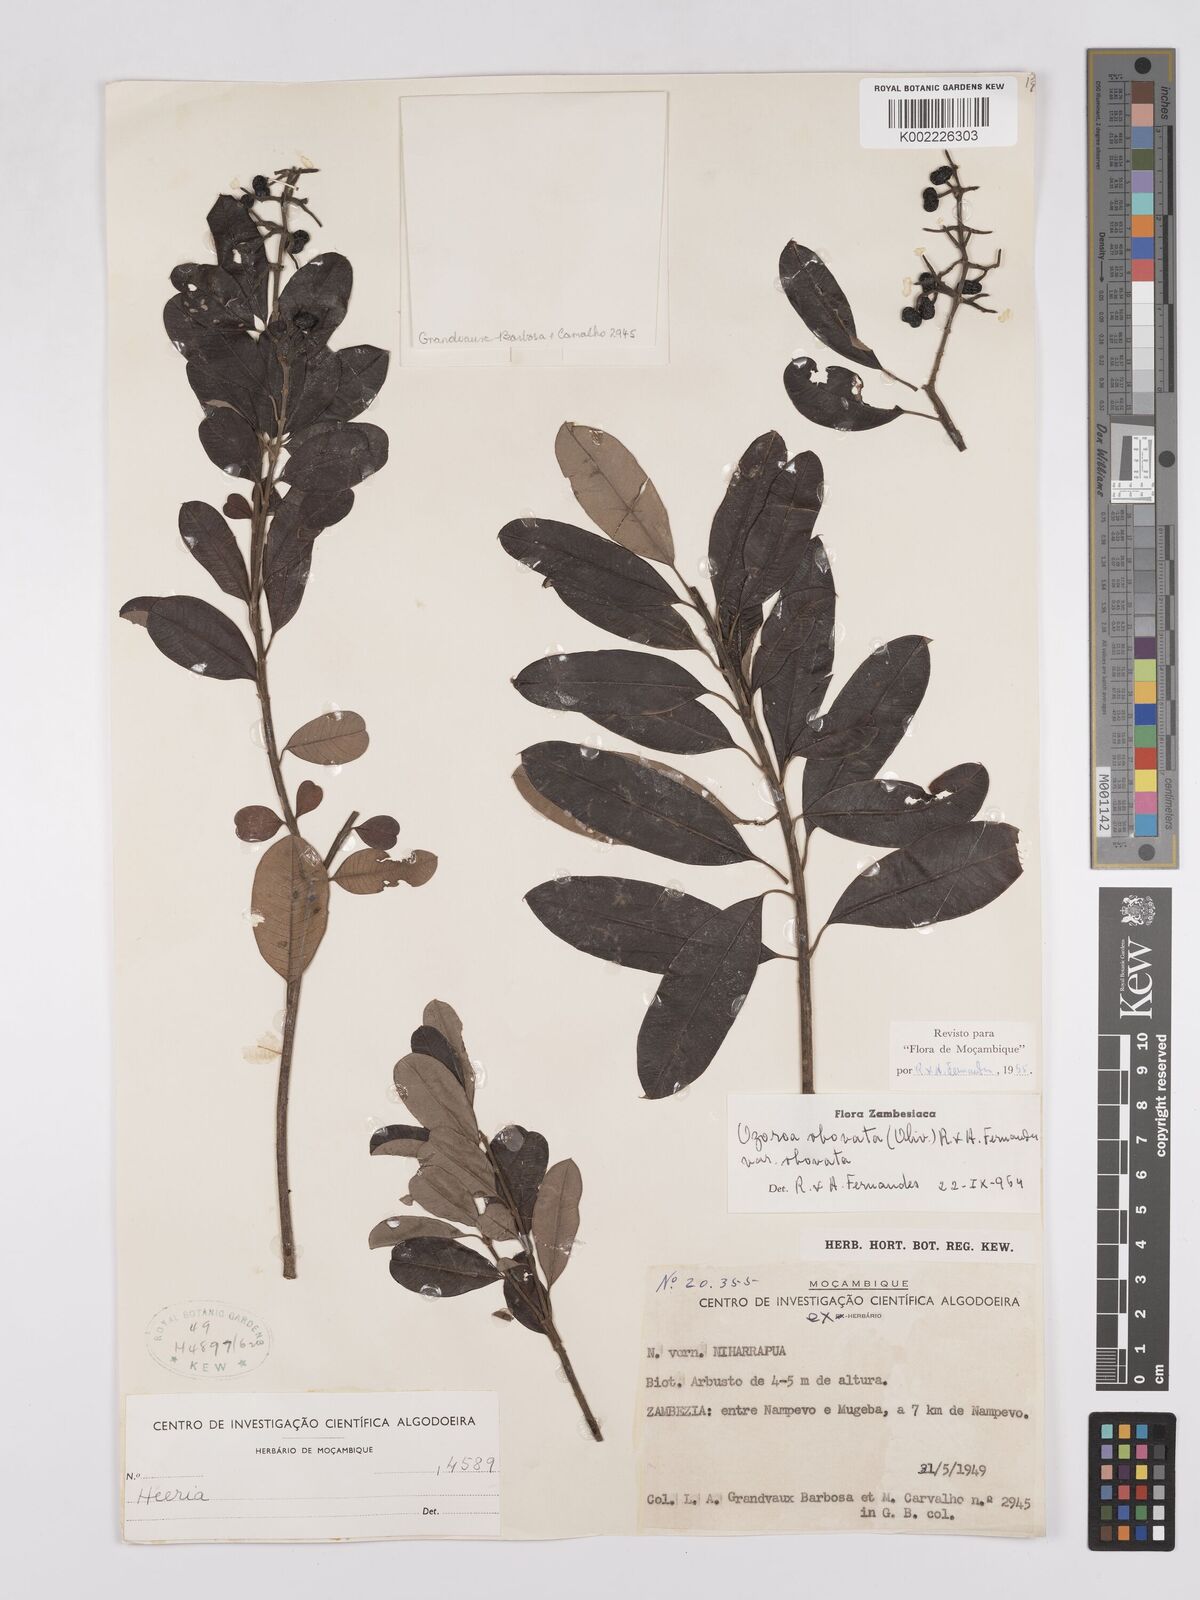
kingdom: Plantae
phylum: Tracheophyta
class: Magnoliopsida
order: Sapindales
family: Anacardiaceae
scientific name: Anacardiaceae
